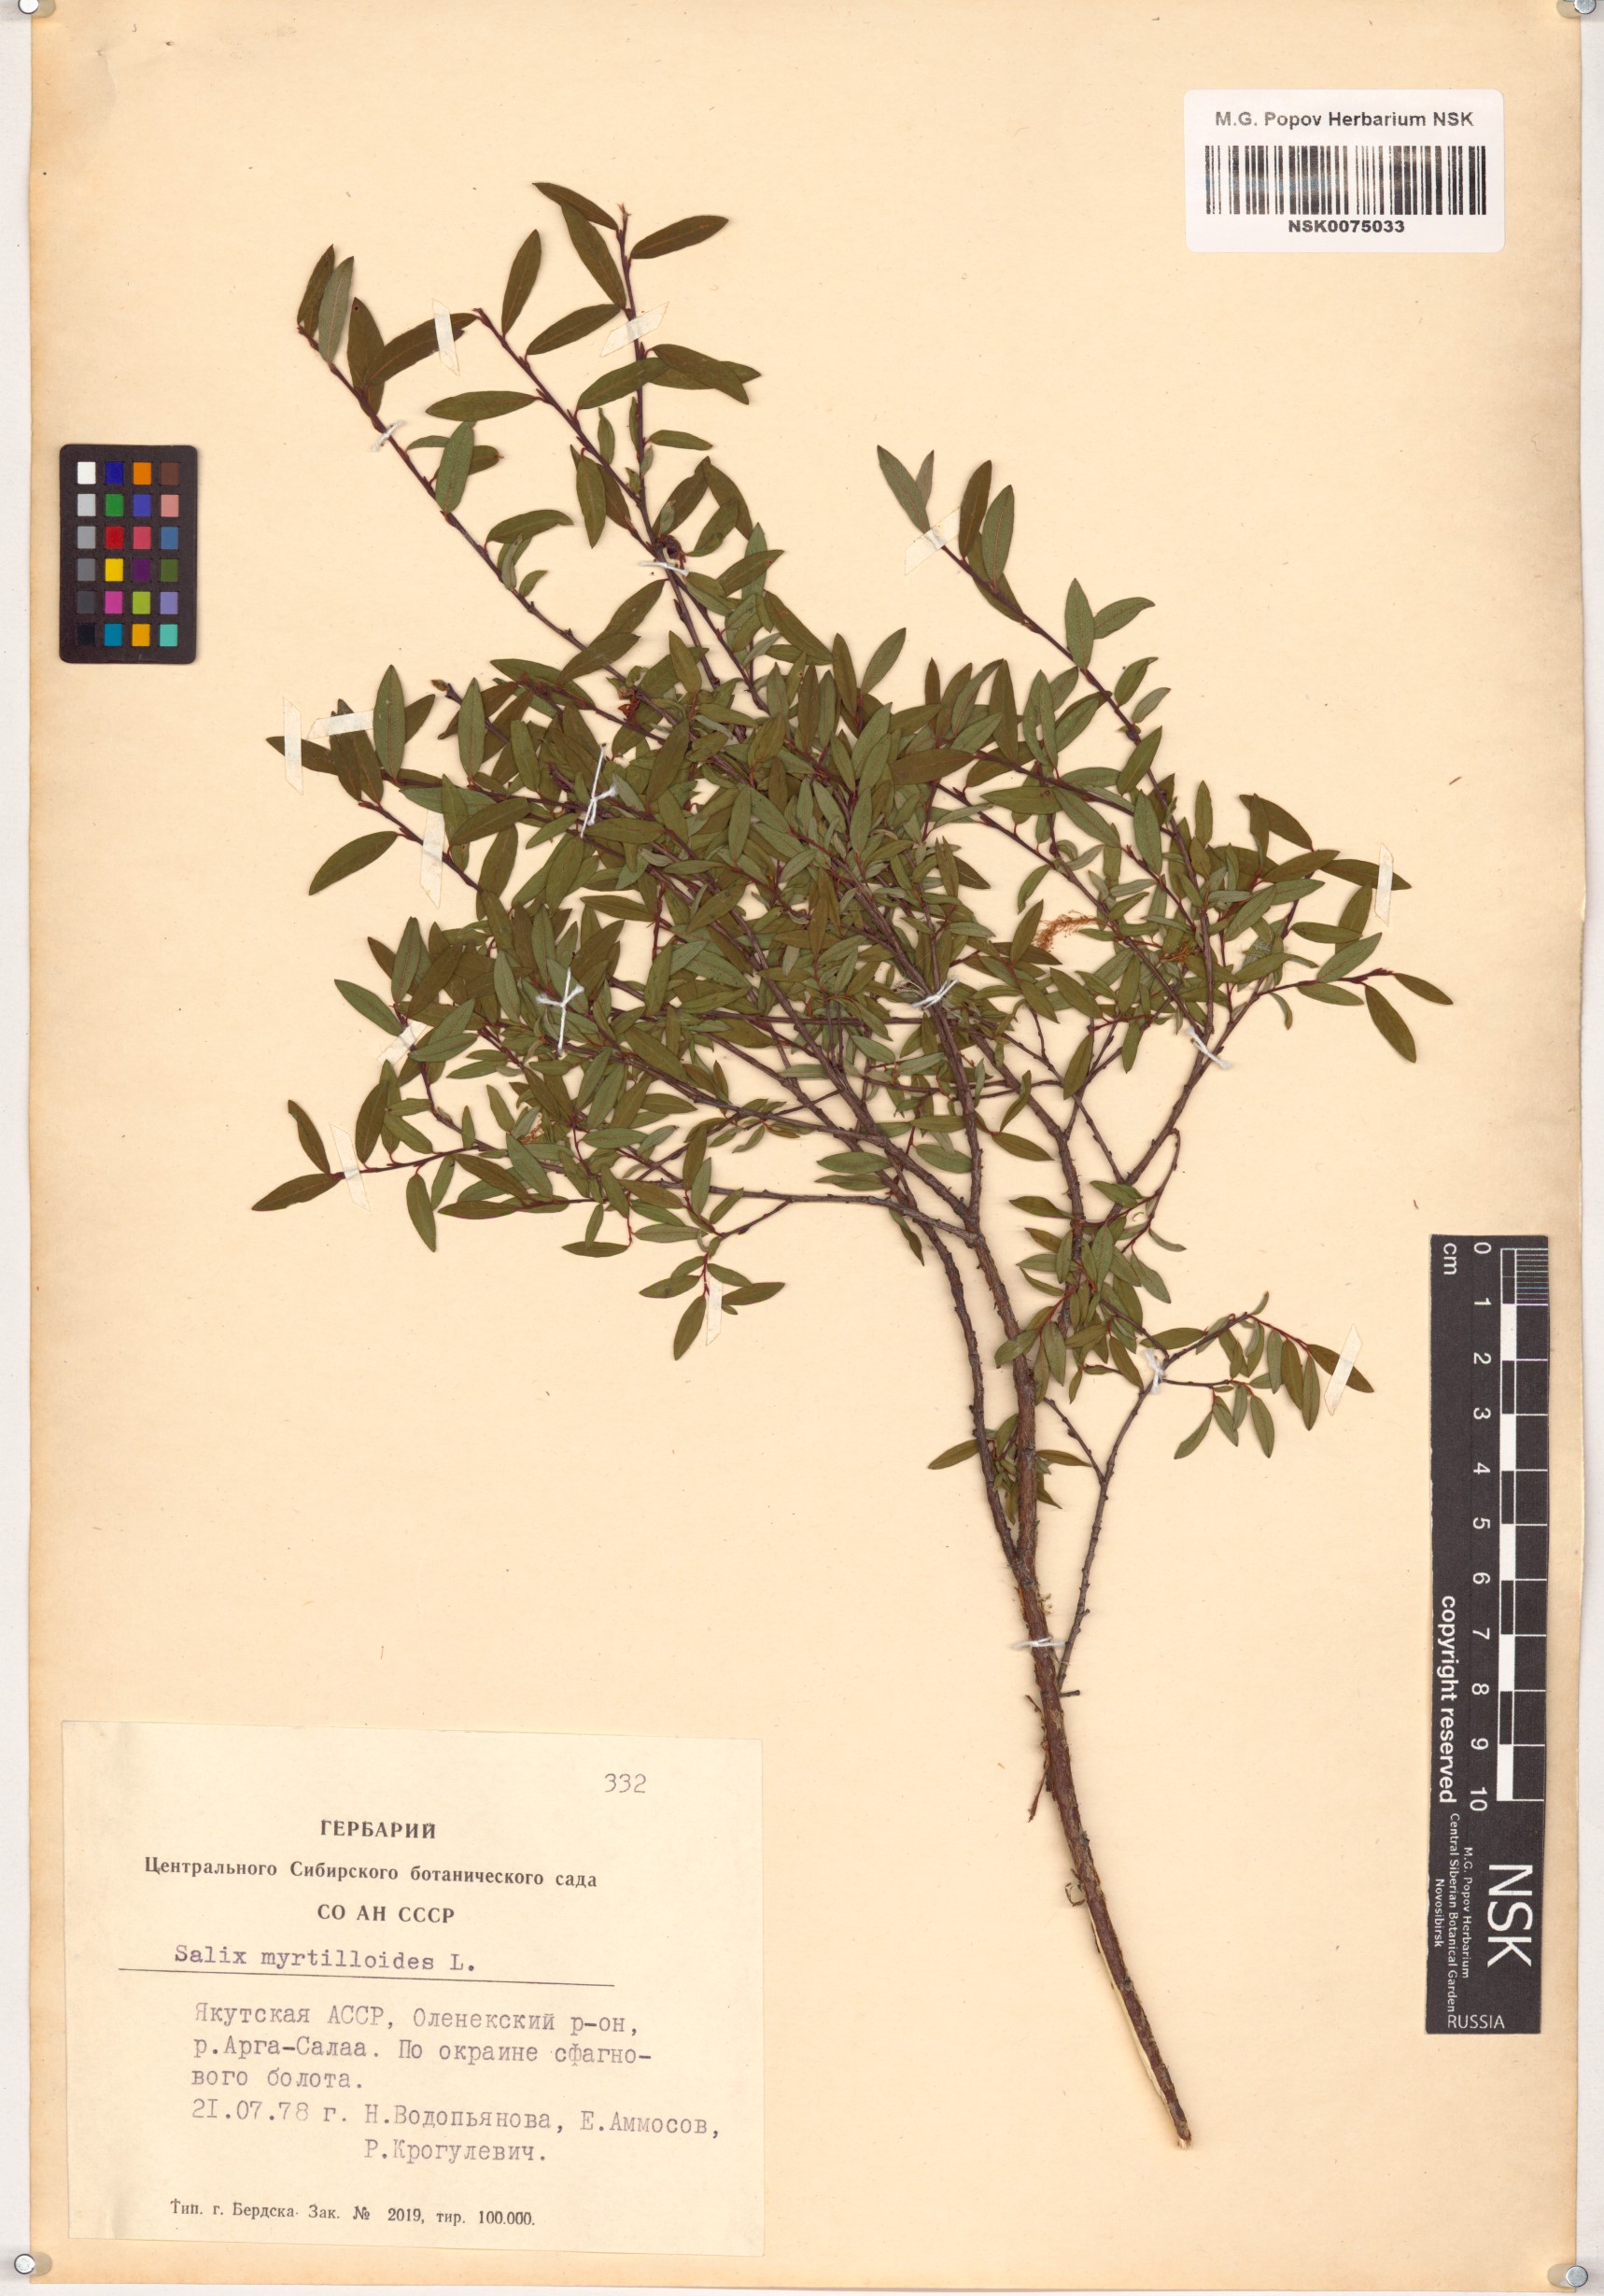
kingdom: Plantae
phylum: Tracheophyta
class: Magnoliopsida
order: Malpighiales
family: Salicaceae
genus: Salix
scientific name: Salix myrtilloides
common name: Myrtle-leaved willow
